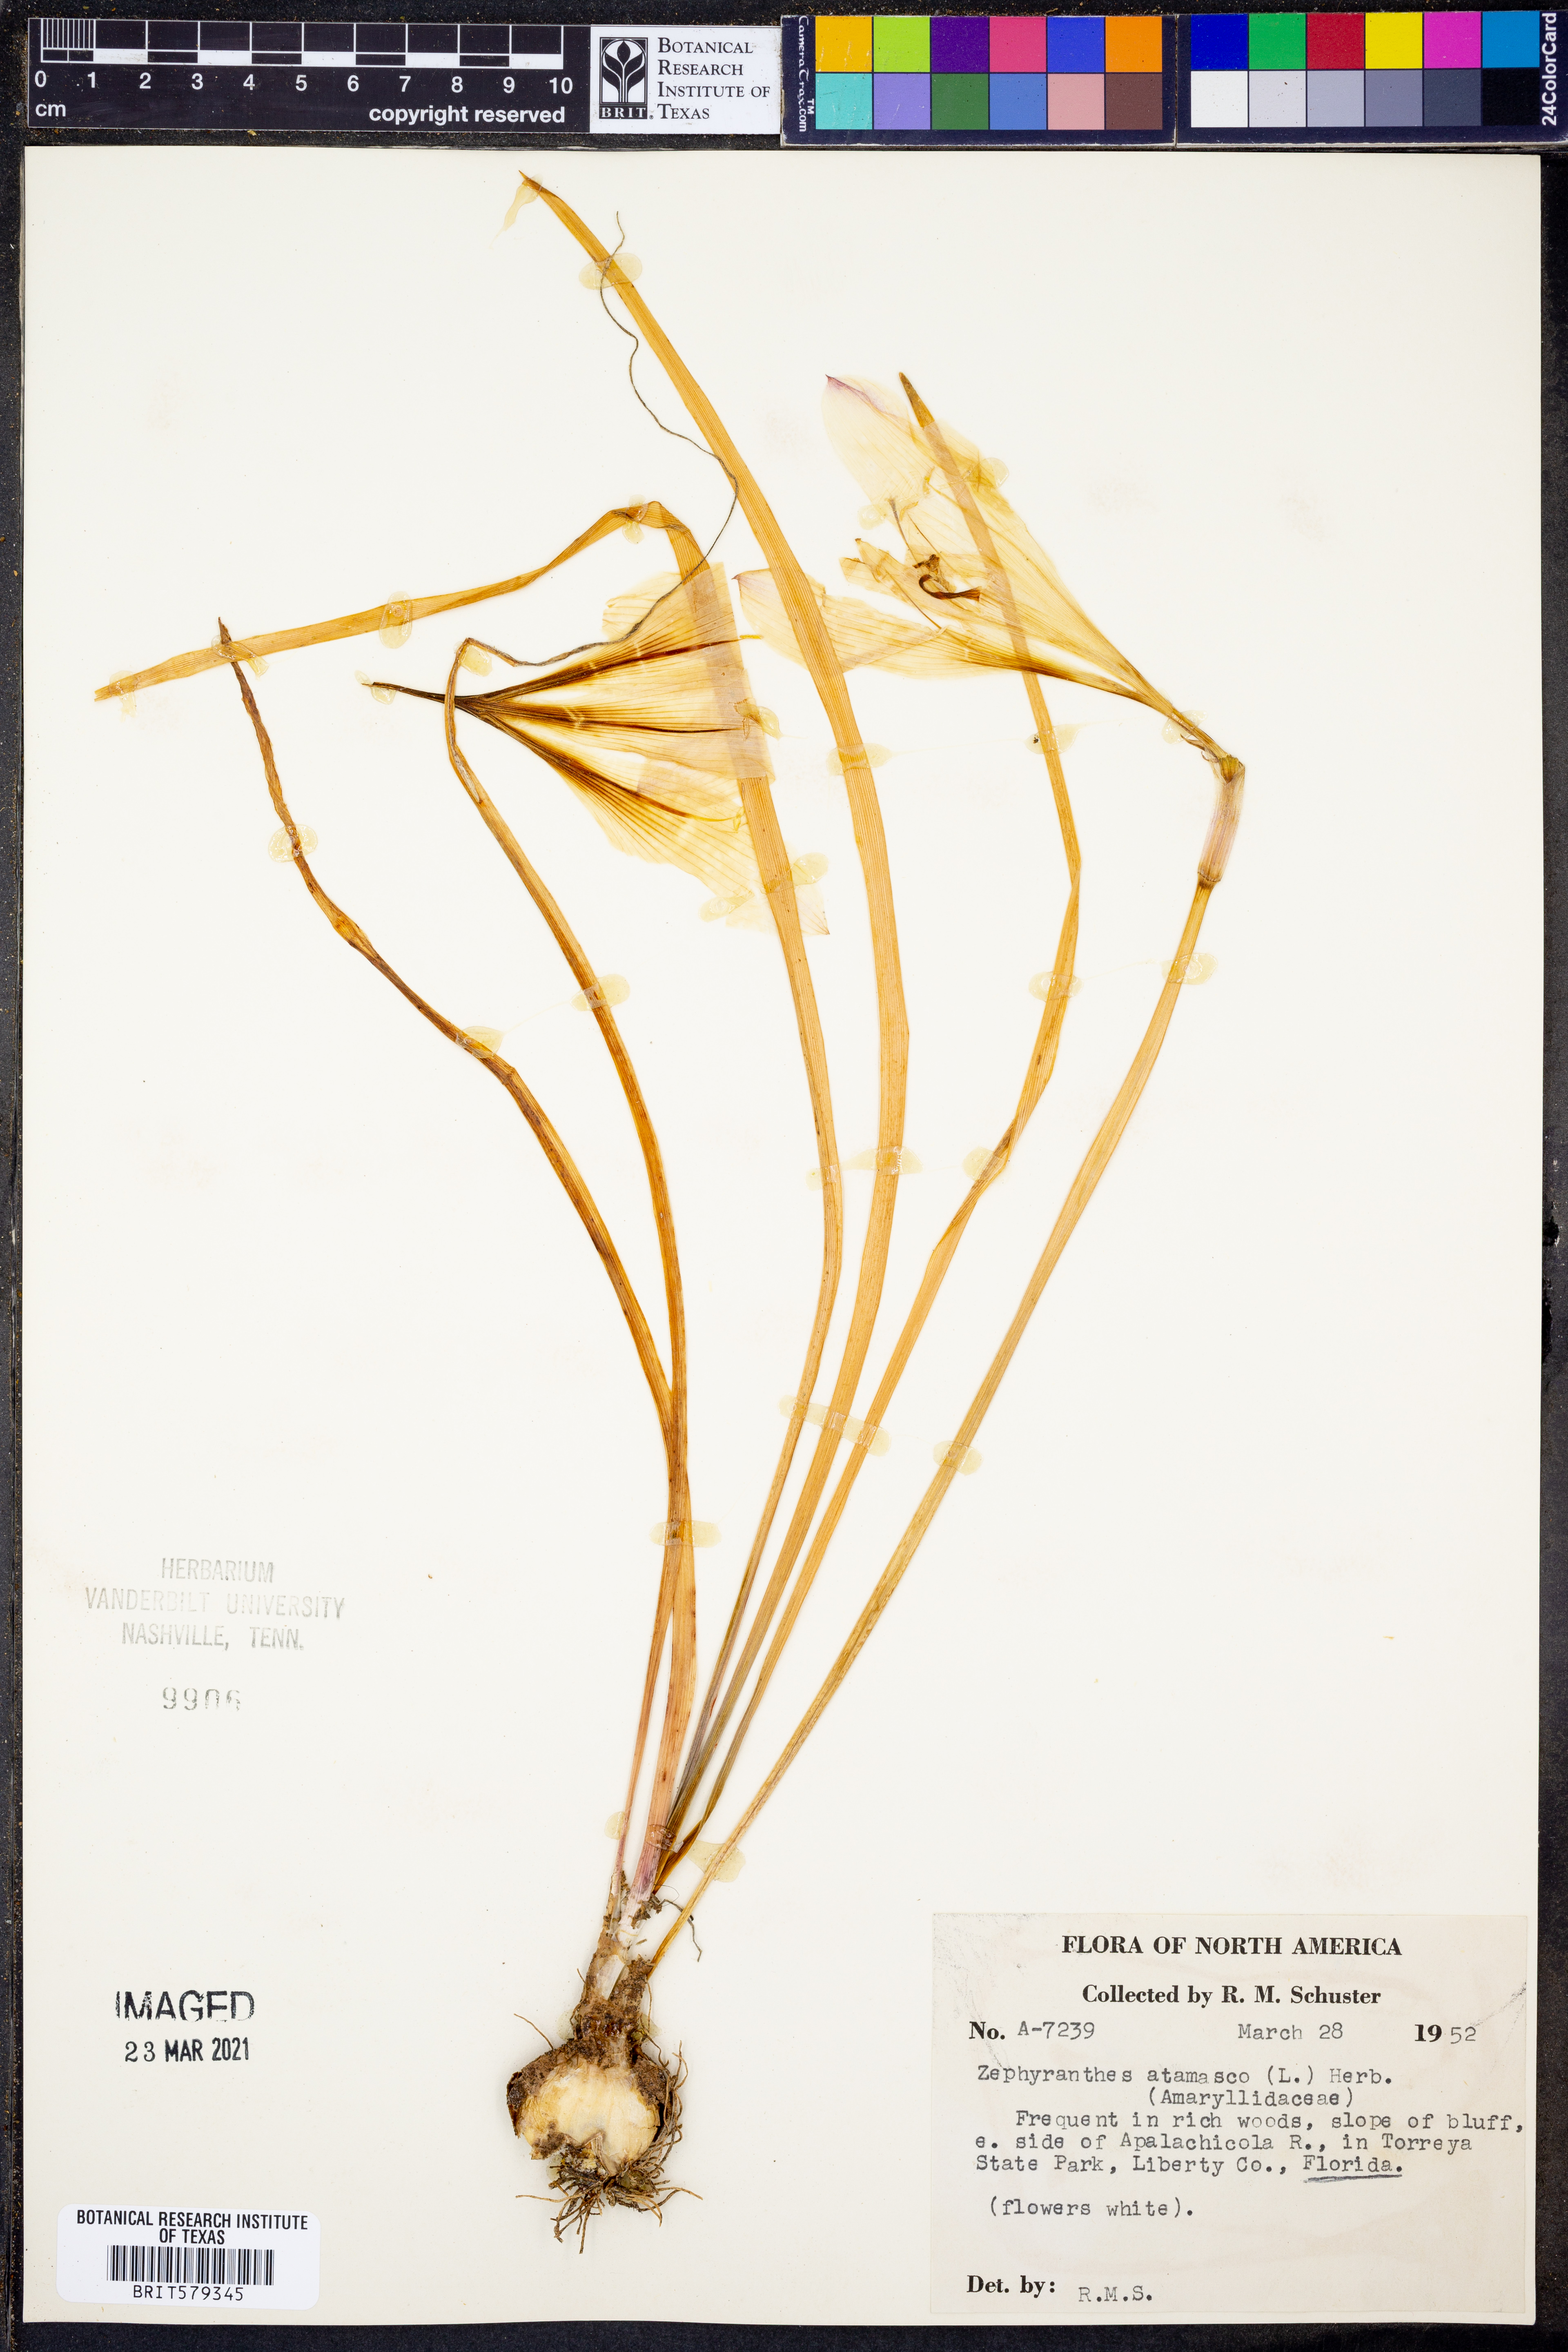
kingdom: Plantae
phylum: Tracheophyta
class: Liliopsida
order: Asparagales
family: Amaryllidaceae
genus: Zephyranthes
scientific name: Zephyranthes atamasco
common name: Atamasco lily
